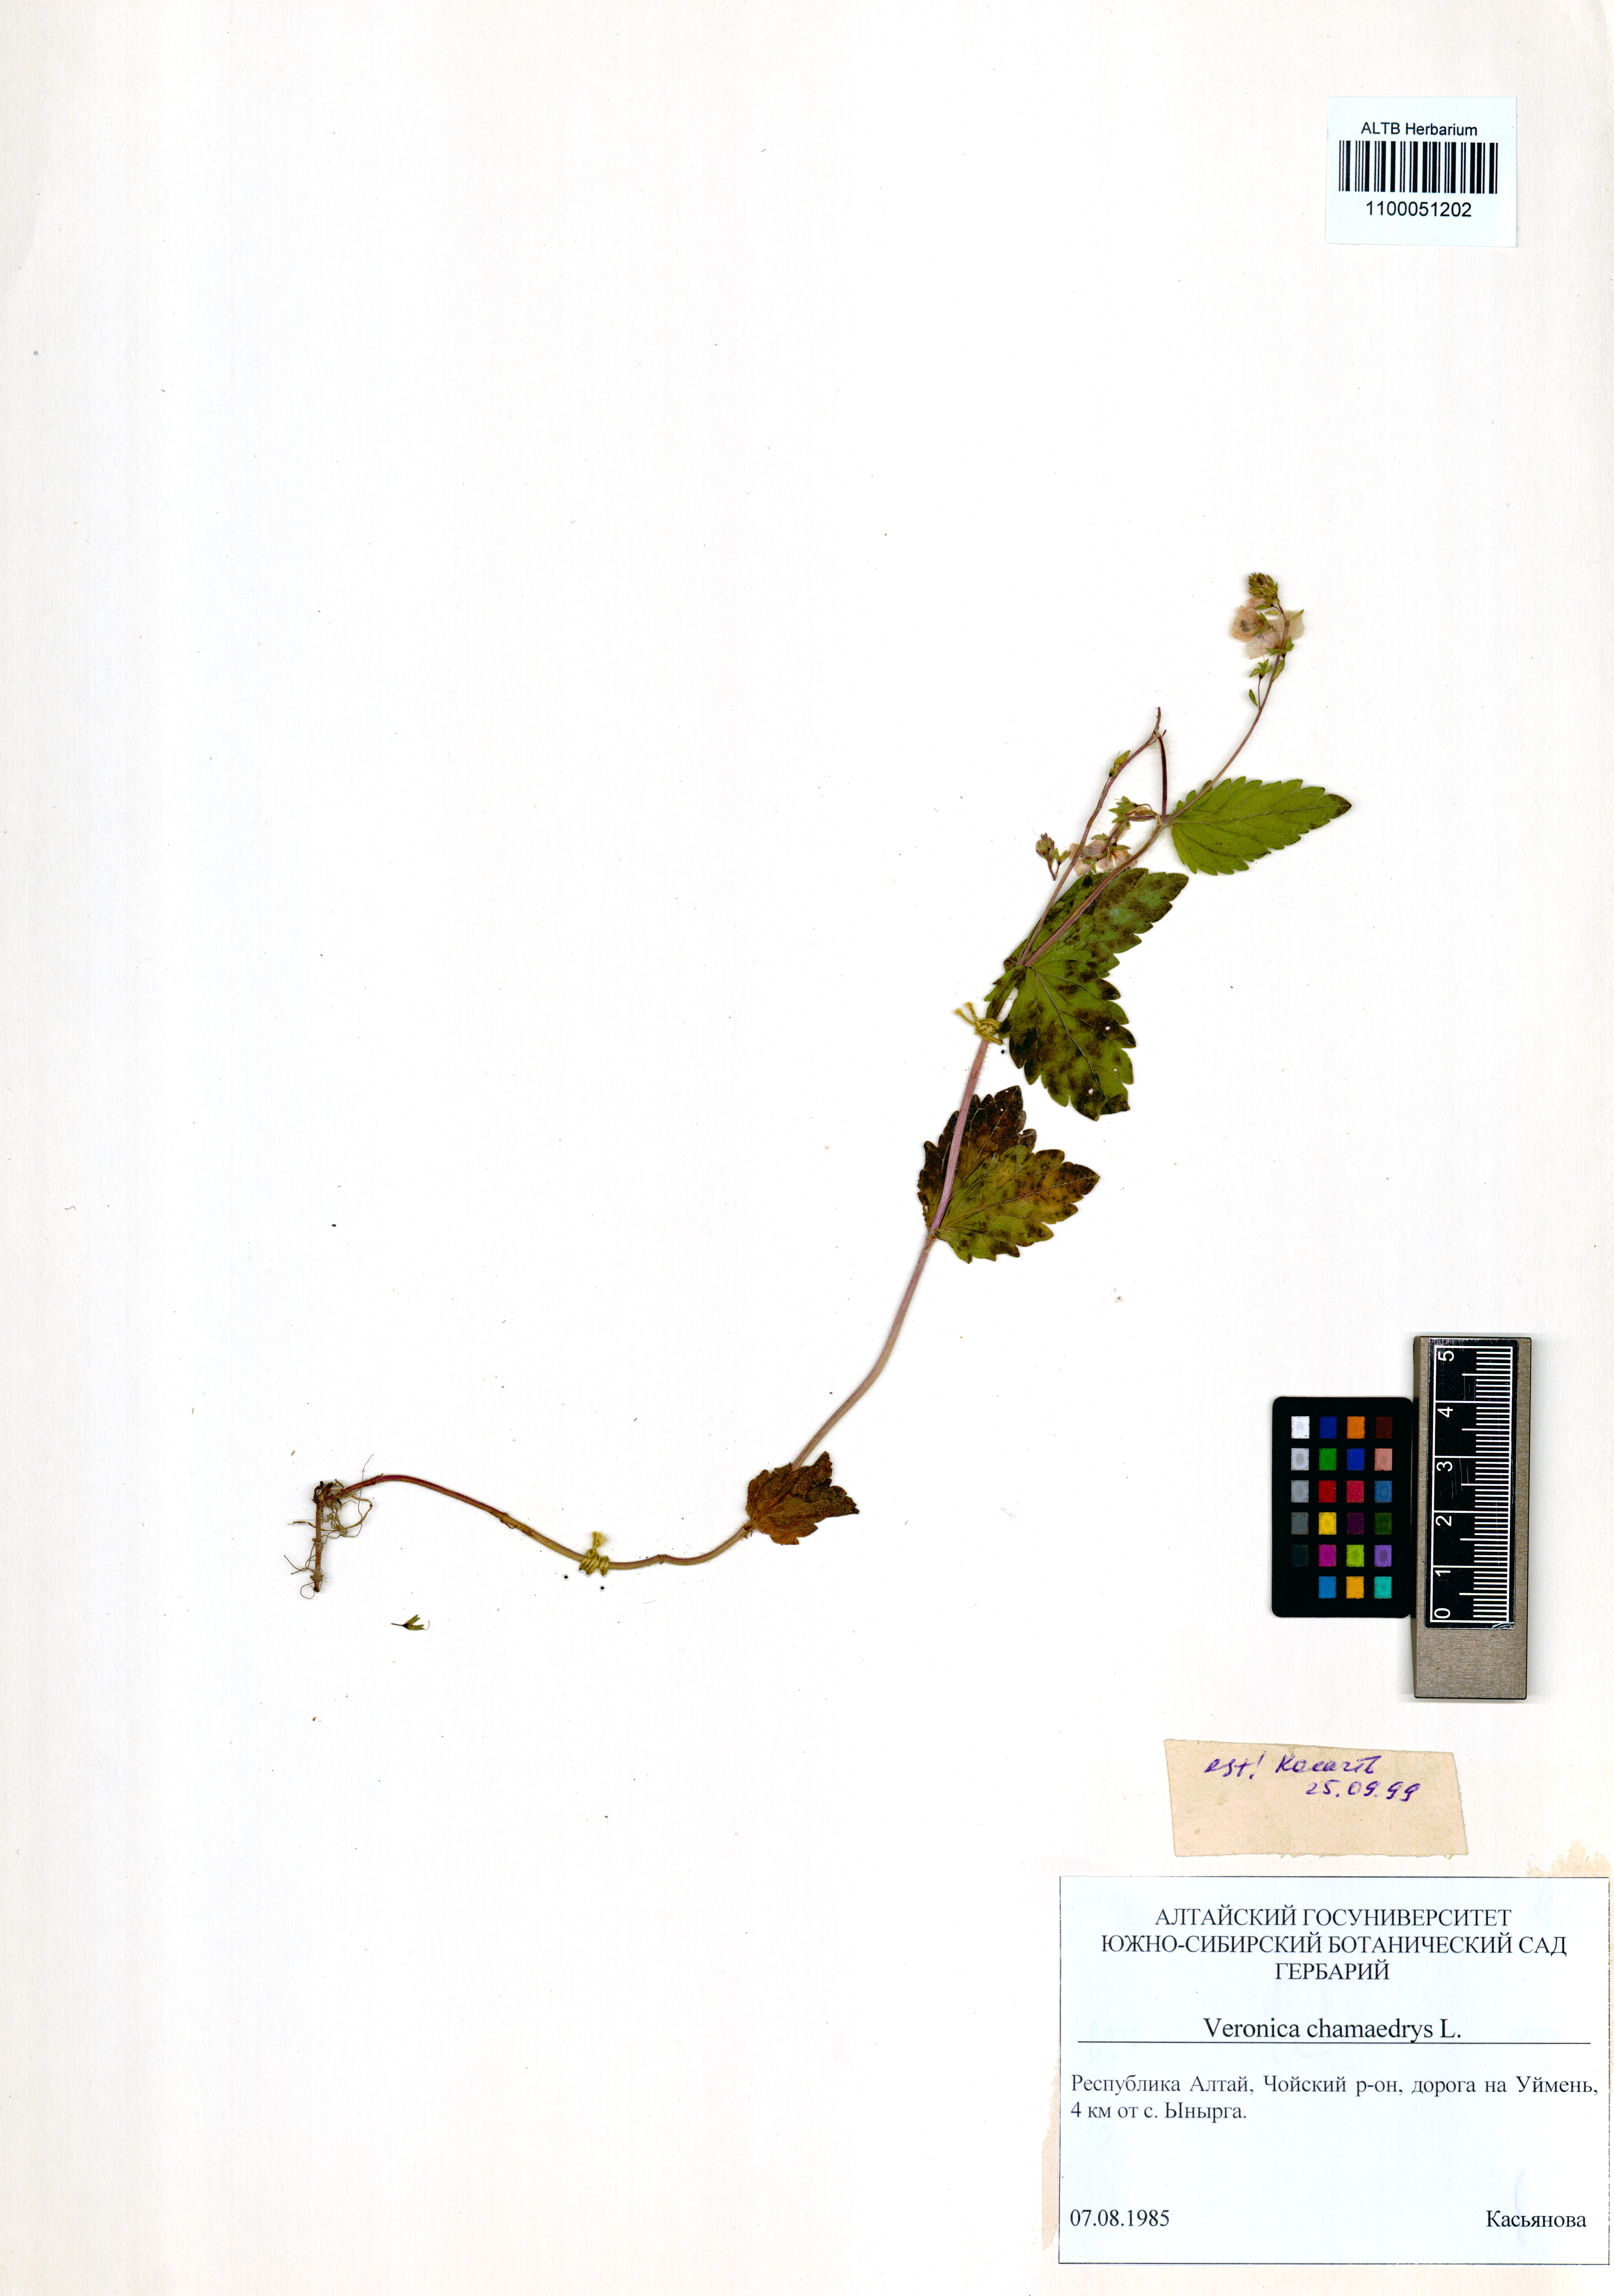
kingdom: Plantae
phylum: Tracheophyta
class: Magnoliopsida
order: Lamiales
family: Plantaginaceae
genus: Veronica
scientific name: Veronica chamaedrys
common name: Germander speedwell
